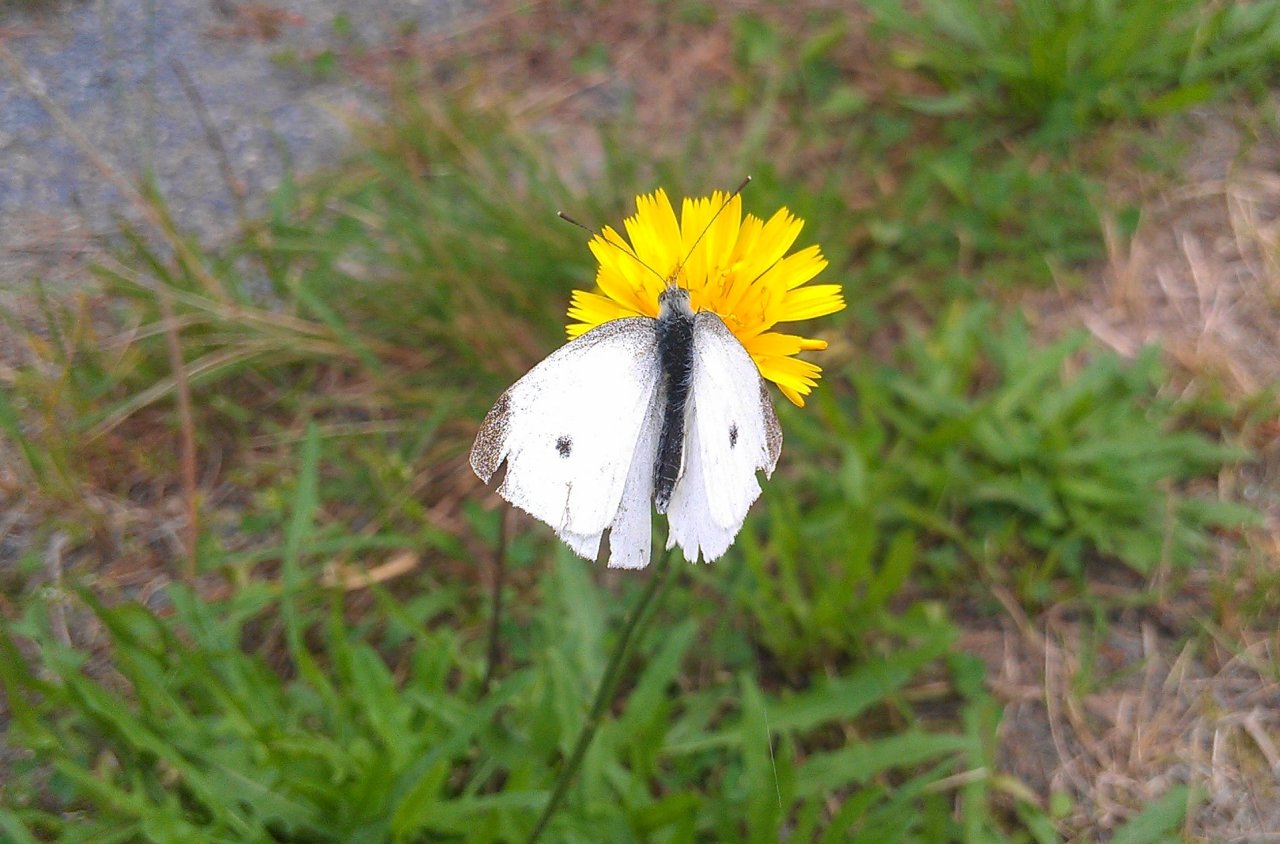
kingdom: Animalia
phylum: Arthropoda
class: Insecta
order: Lepidoptera
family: Pieridae
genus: Pieris
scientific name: Pieris rapae
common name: Cabbage White
